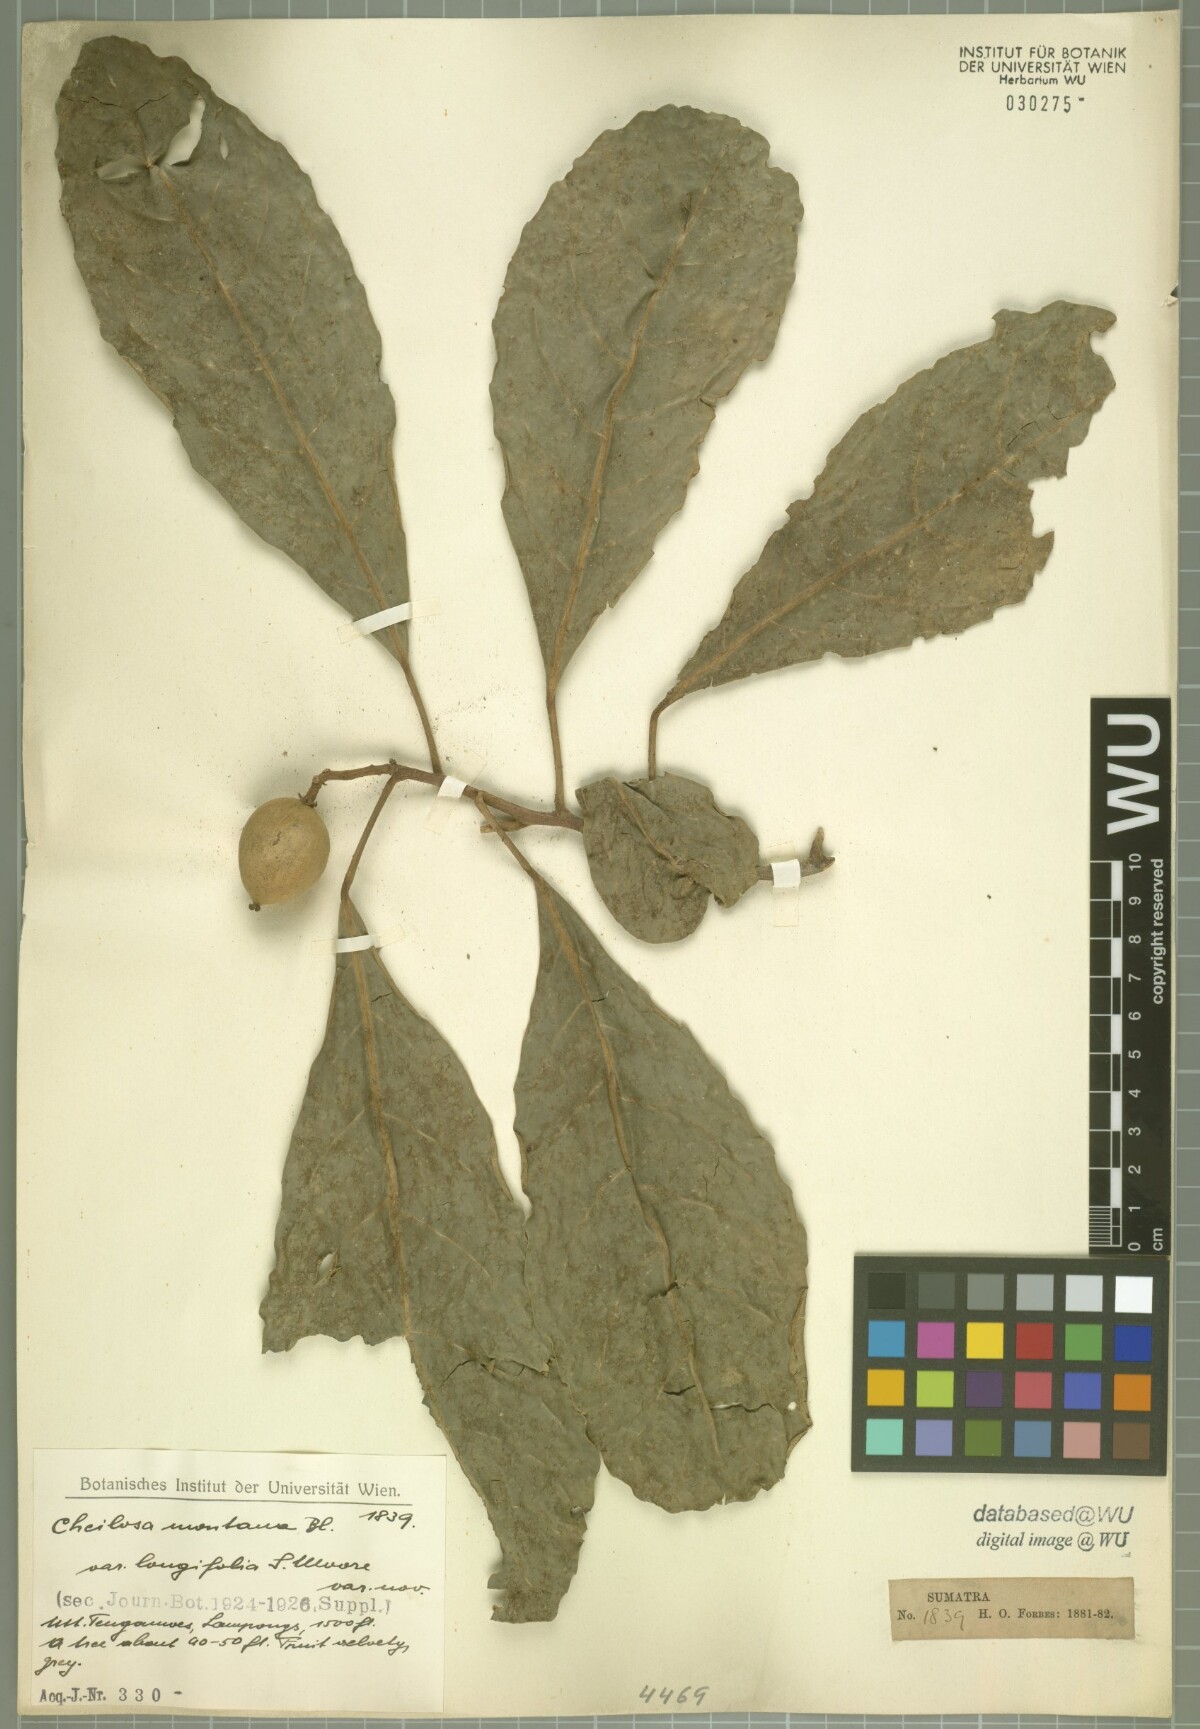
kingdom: Plantae
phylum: Tracheophyta
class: Magnoliopsida
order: Malpighiales
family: Euphorbiaceae
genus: Cheilosa
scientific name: Cheilosa montana
